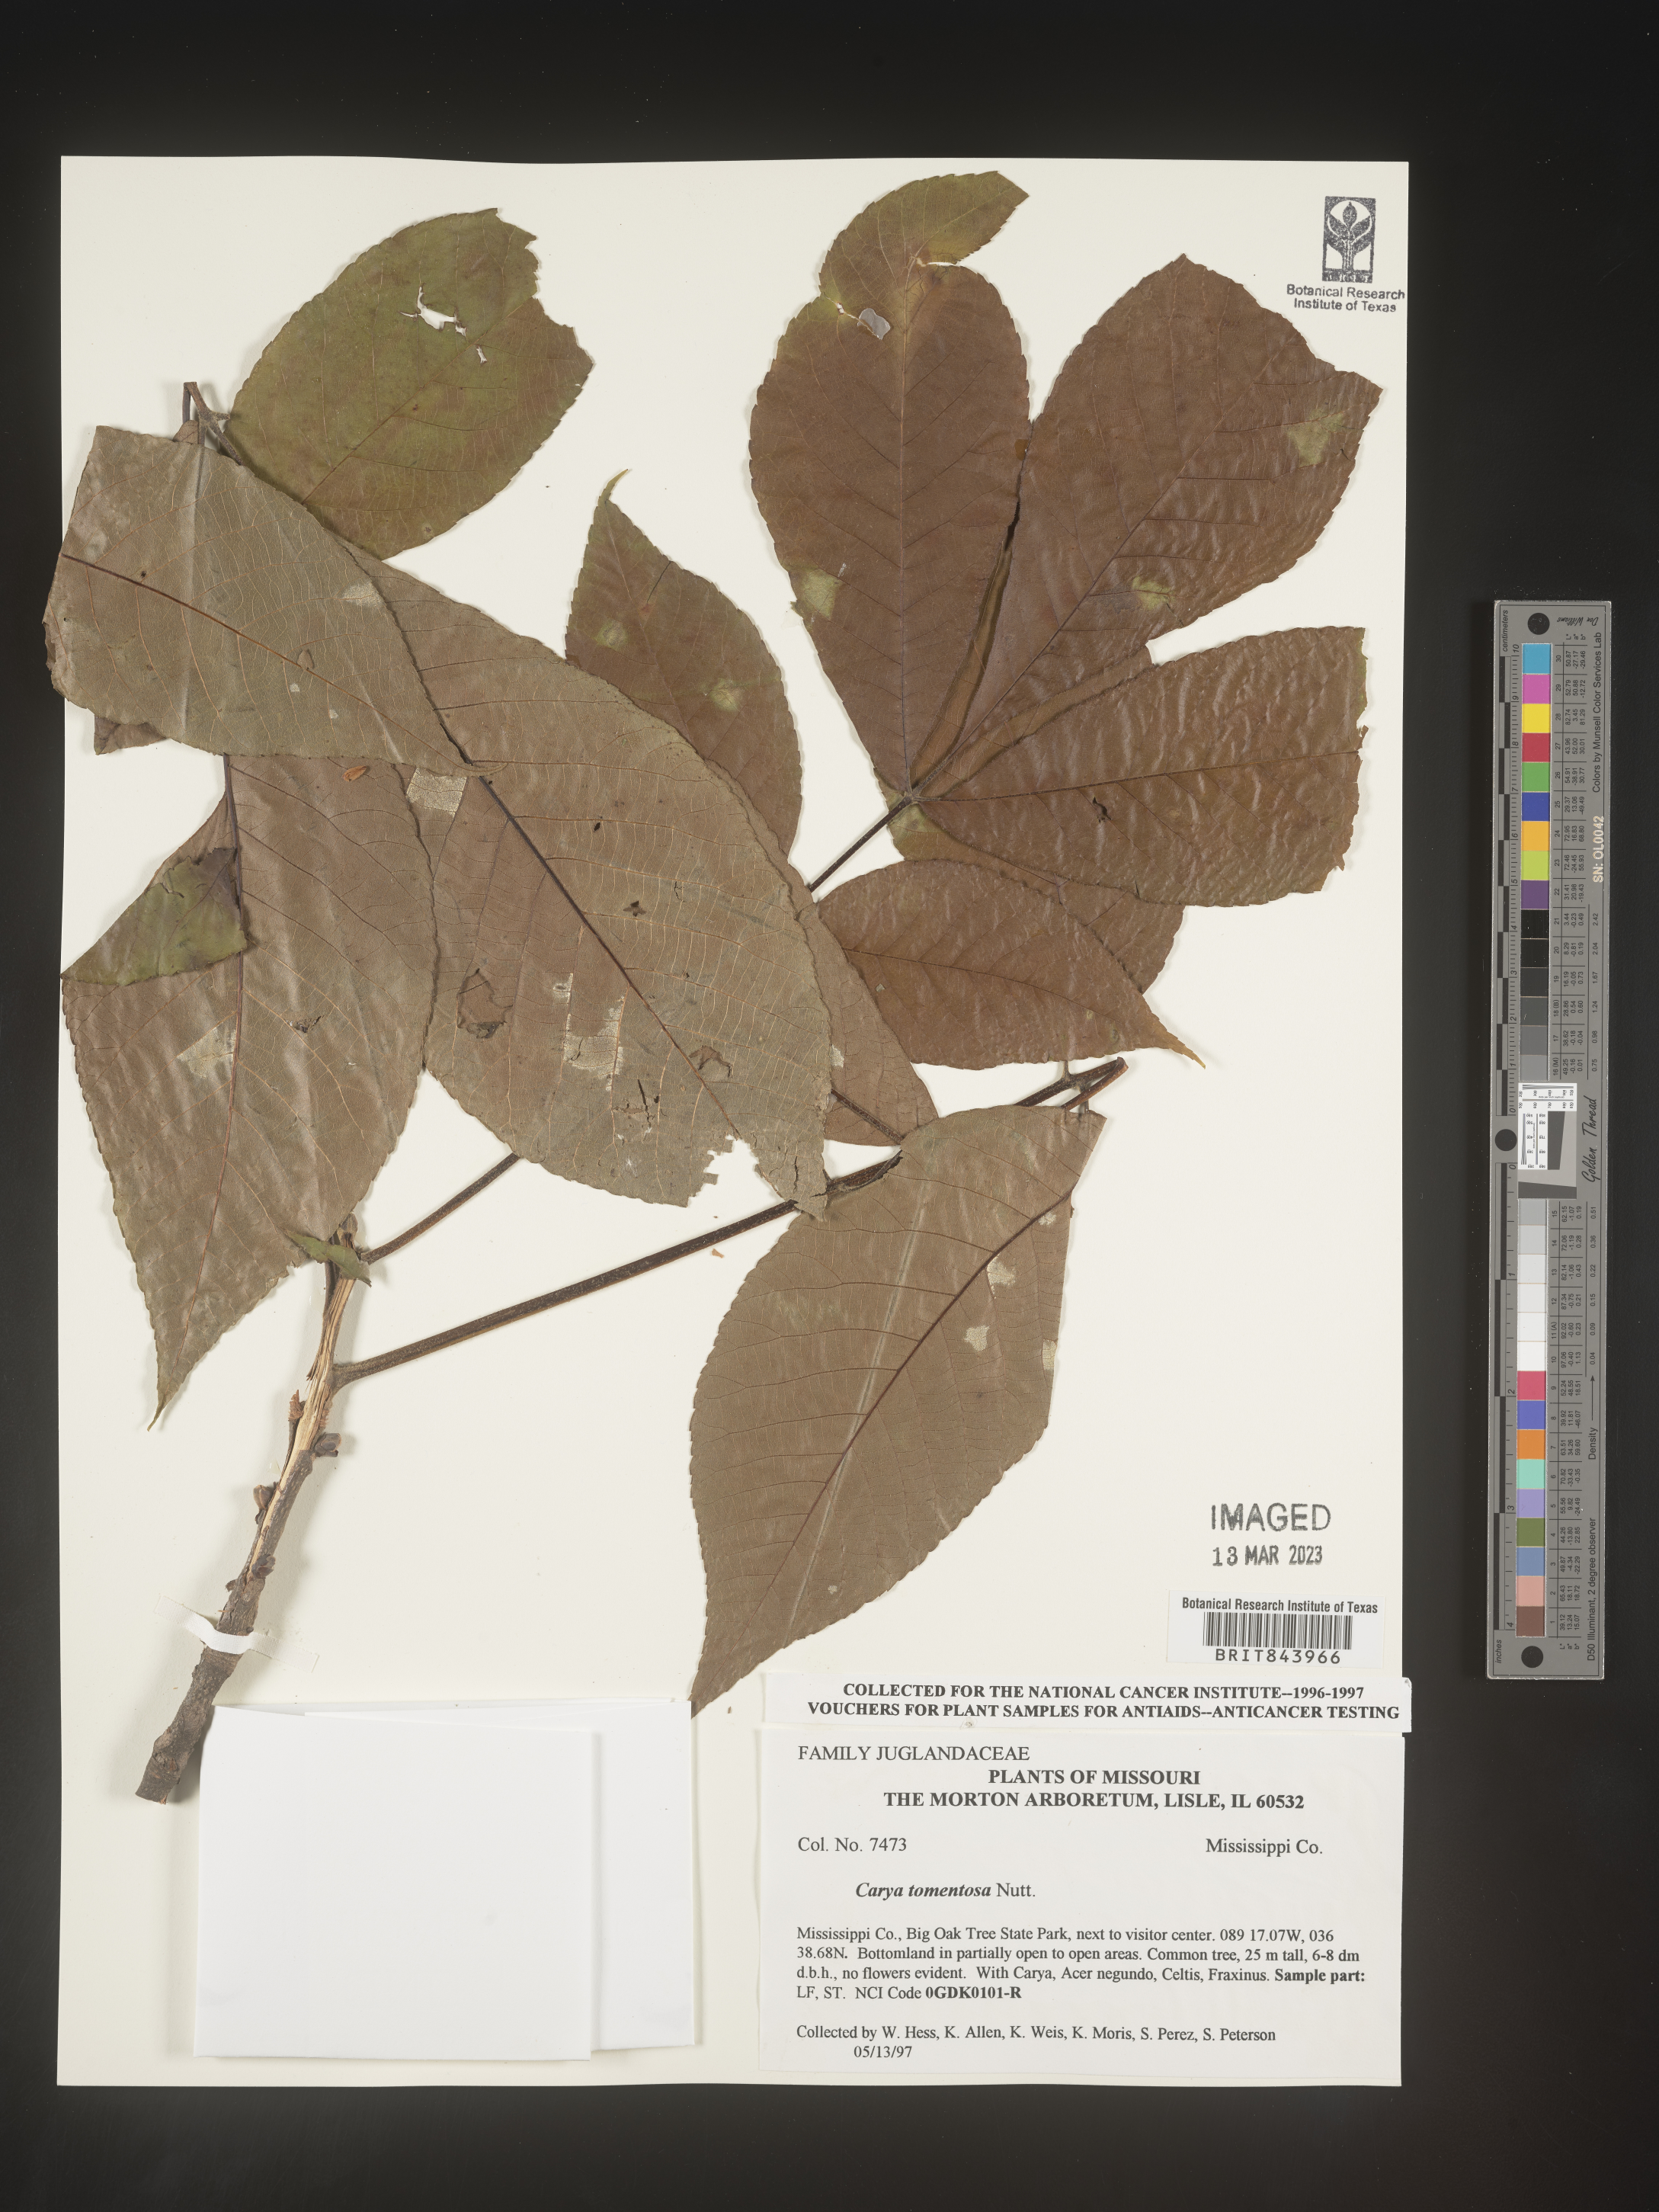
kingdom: Plantae
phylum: Tracheophyta
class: Magnoliopsida
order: Fagales
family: Juglandaceae
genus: Carya
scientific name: Carya alba
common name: Mockernut hickory
